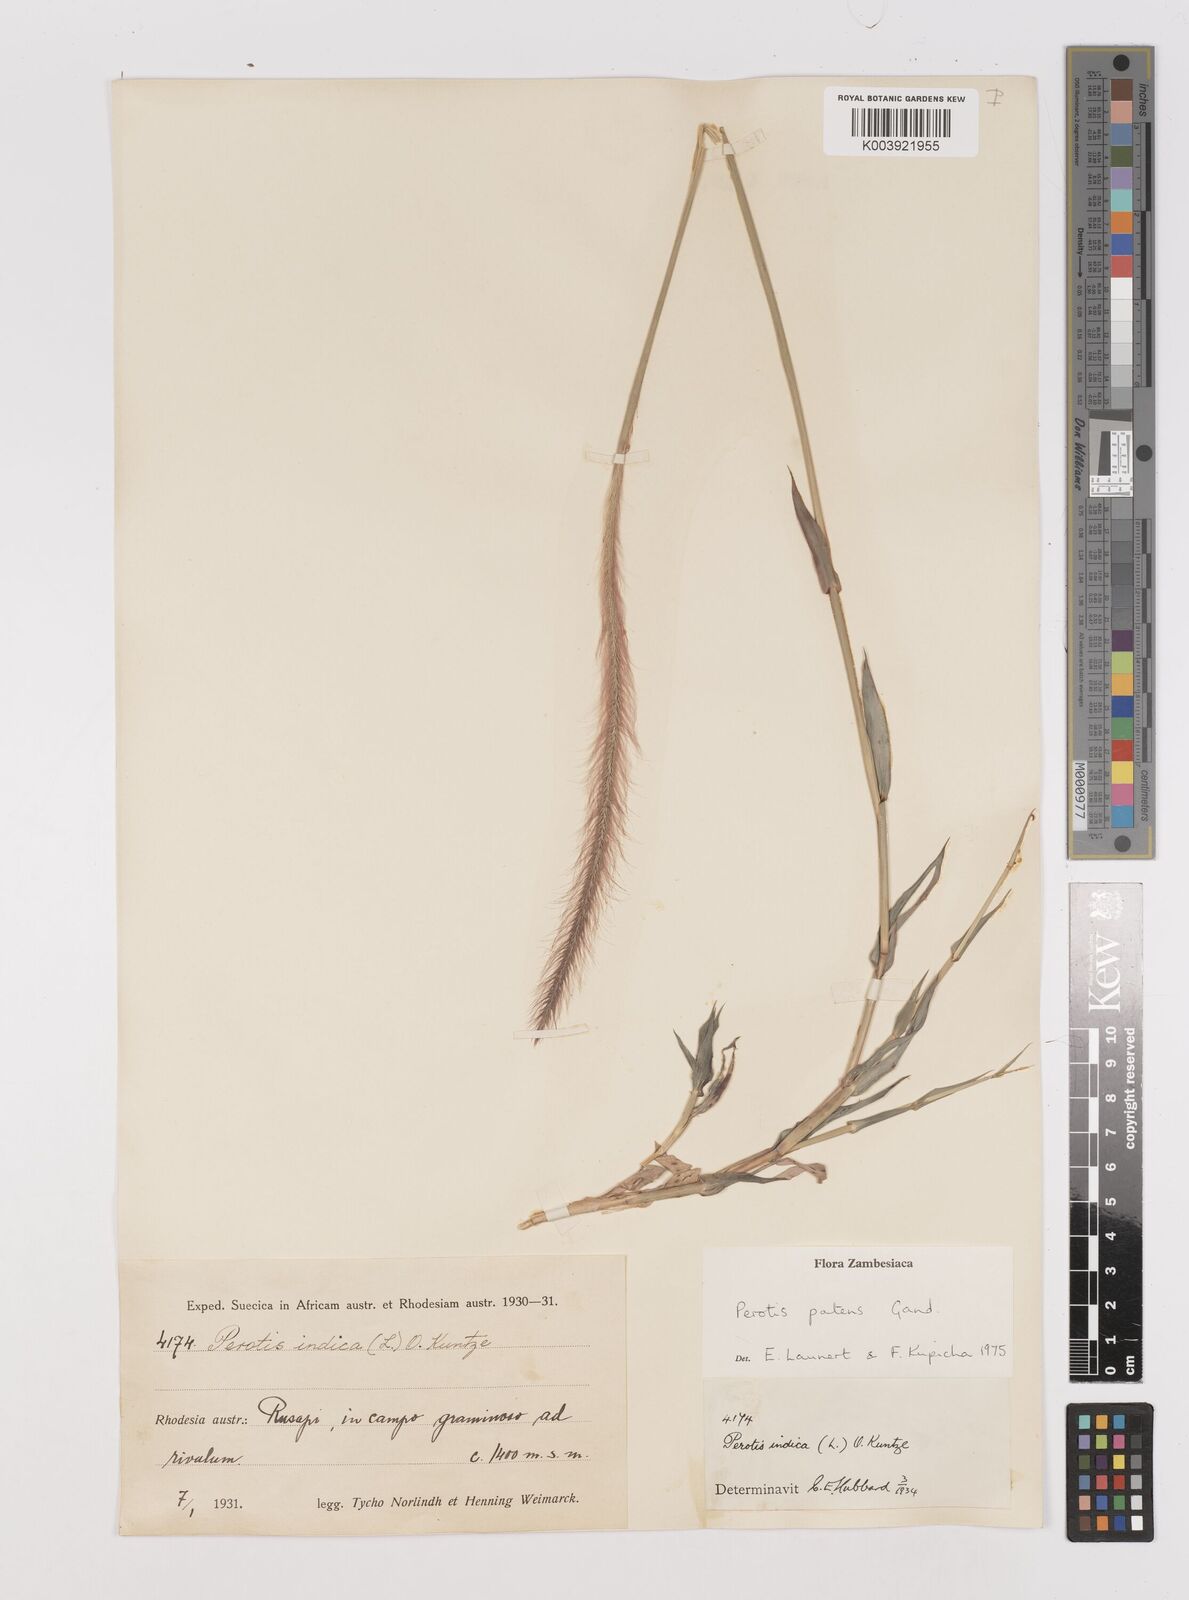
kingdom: Plantae
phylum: Tracheophyta
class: Liliopsida
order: Poales
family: Poaceae
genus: Perotis
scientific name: Perotis patens
